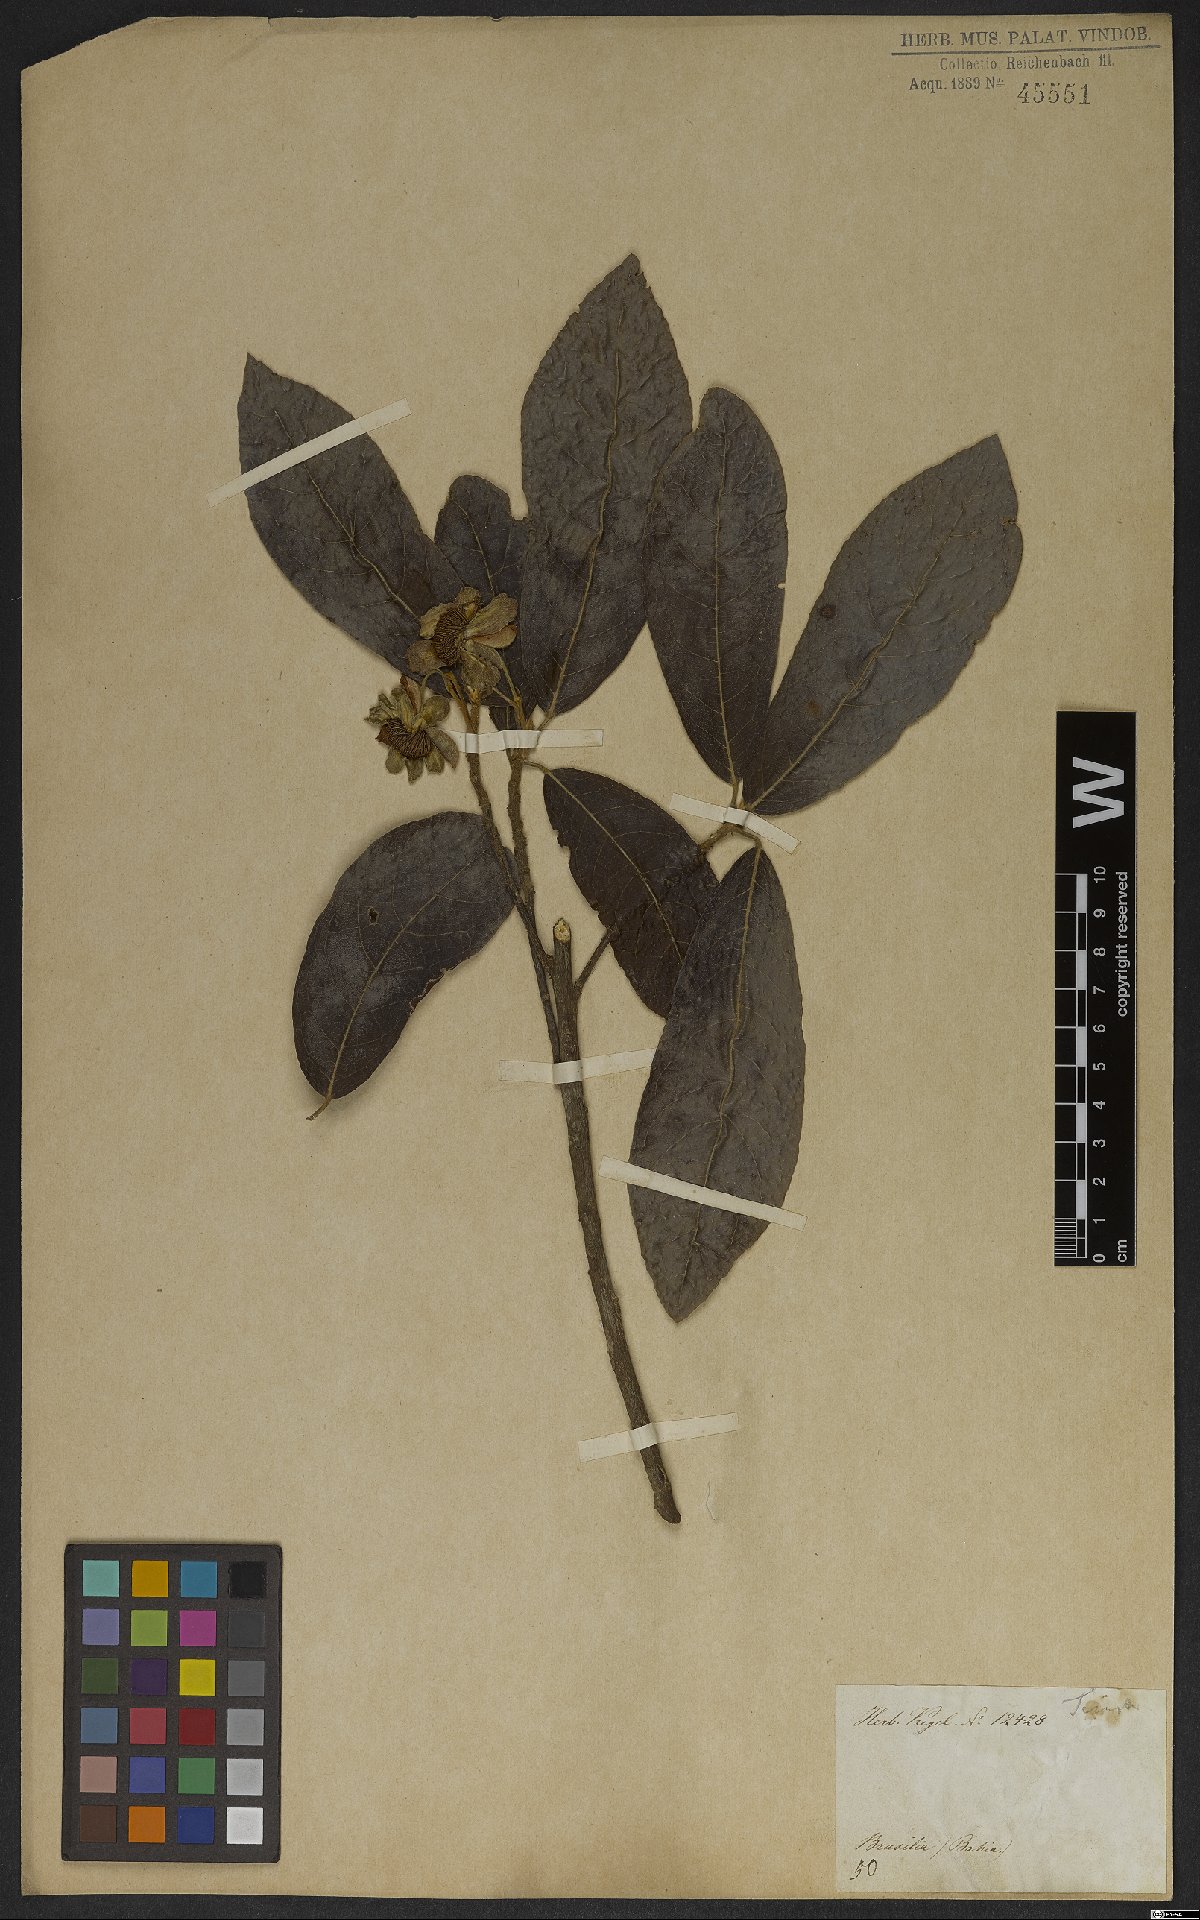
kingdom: Plantae
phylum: Tracheophyta
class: Magnoliopsida
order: Malpighiales
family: Achariaceae
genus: Carpotroche
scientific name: Carpotroche brasiliensis
